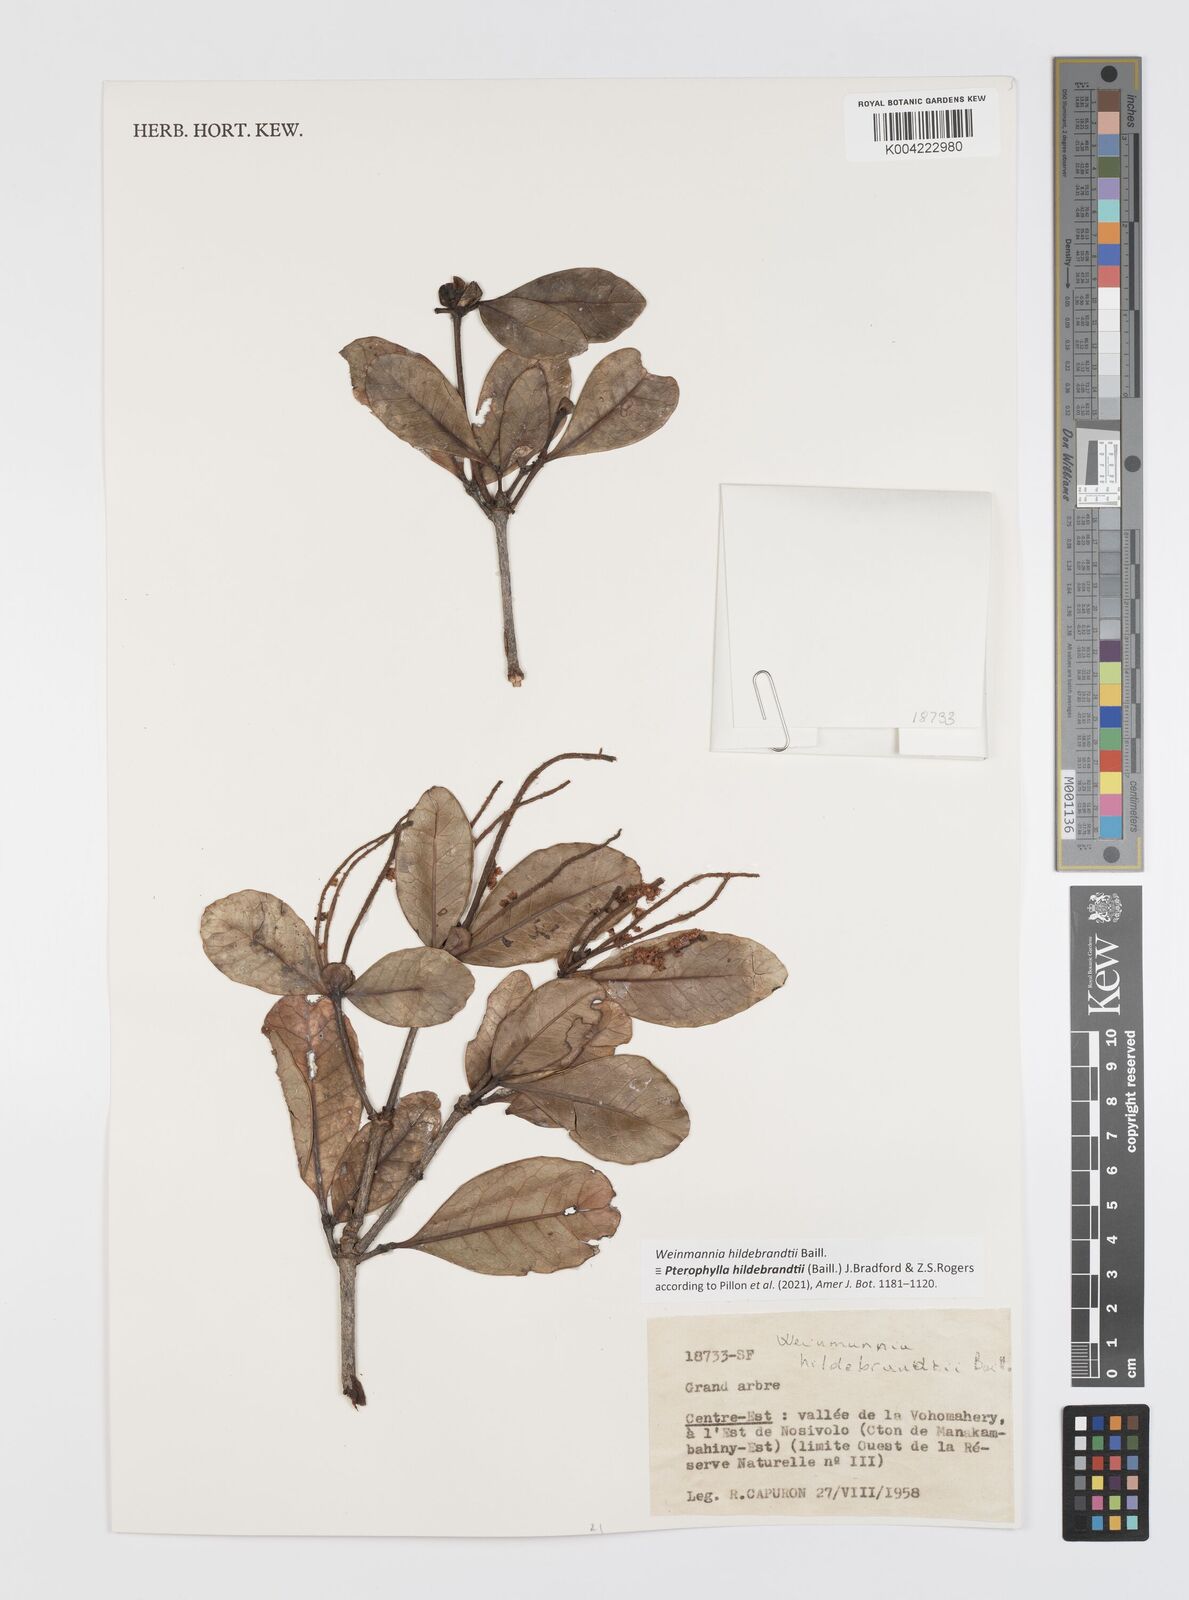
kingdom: Plantae
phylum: Tracheophyta
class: Magnoliopsida
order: Oxalidales
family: Cunoniaceae
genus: Pterophylla
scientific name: Pterophylla hildebrandtii
